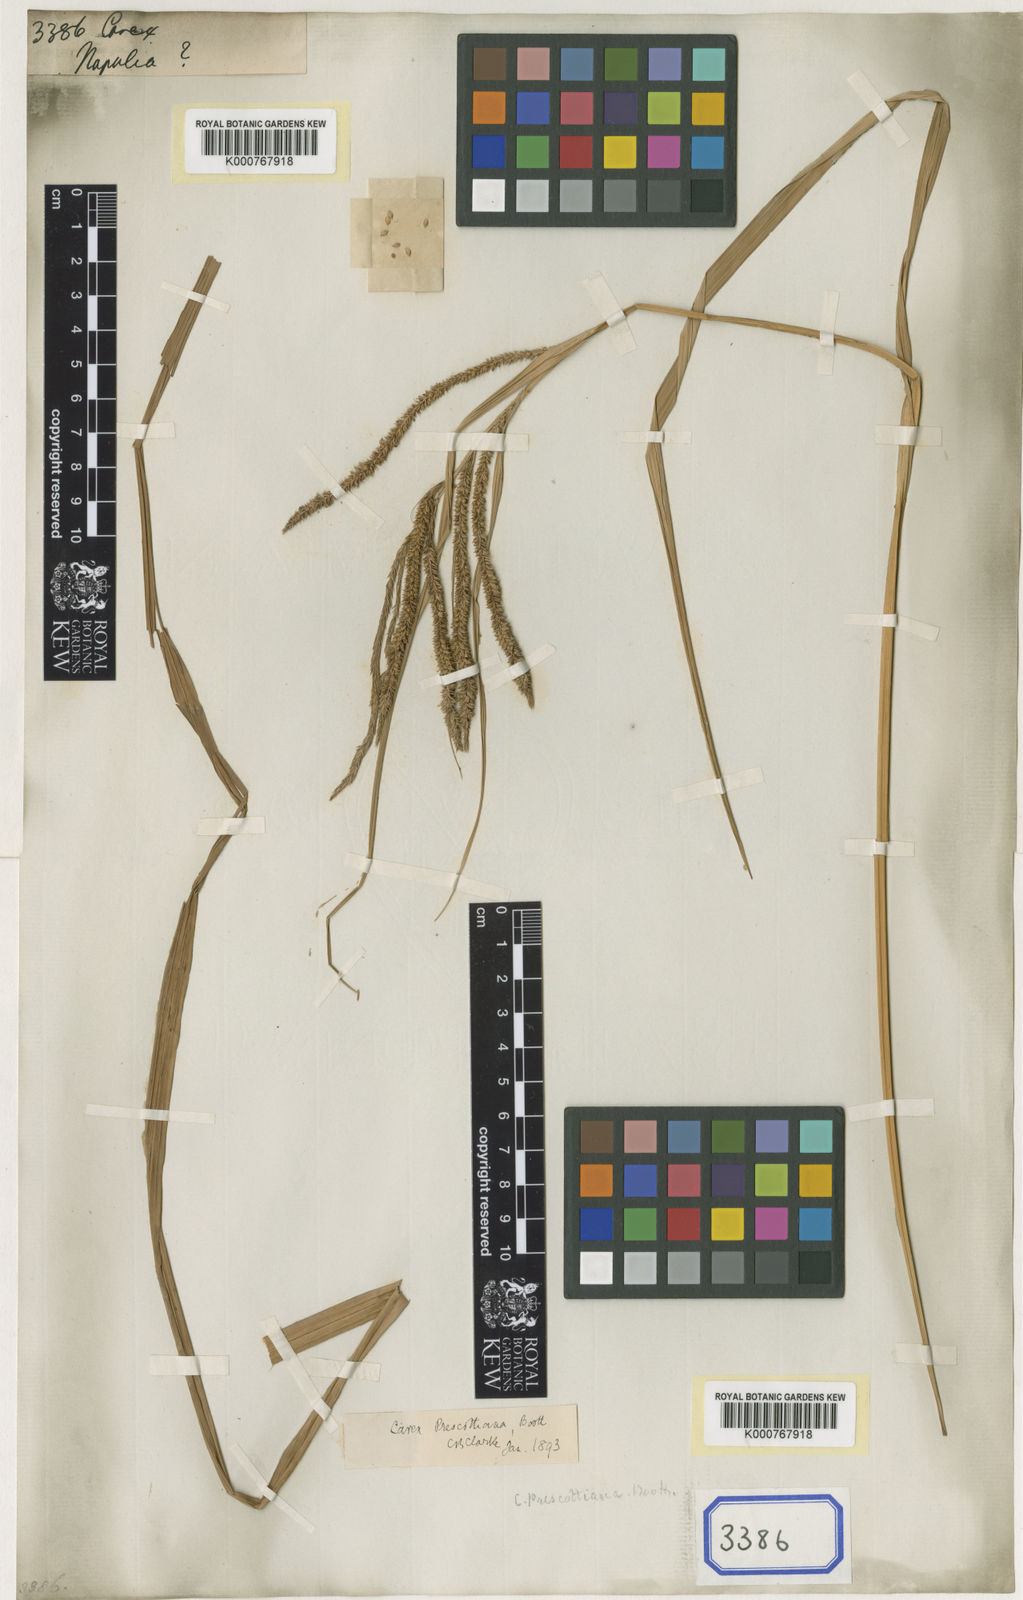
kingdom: Plantae
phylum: Tracheophyta
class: Liliopsida
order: Poales
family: Cyperaceae
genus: Carex
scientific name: Carex
